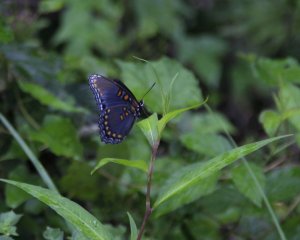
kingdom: Animalia
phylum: Arthropoda
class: Insecta
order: Lepidoptera
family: Nymphalidae
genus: Limenitis
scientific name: Limenitis astyanax
